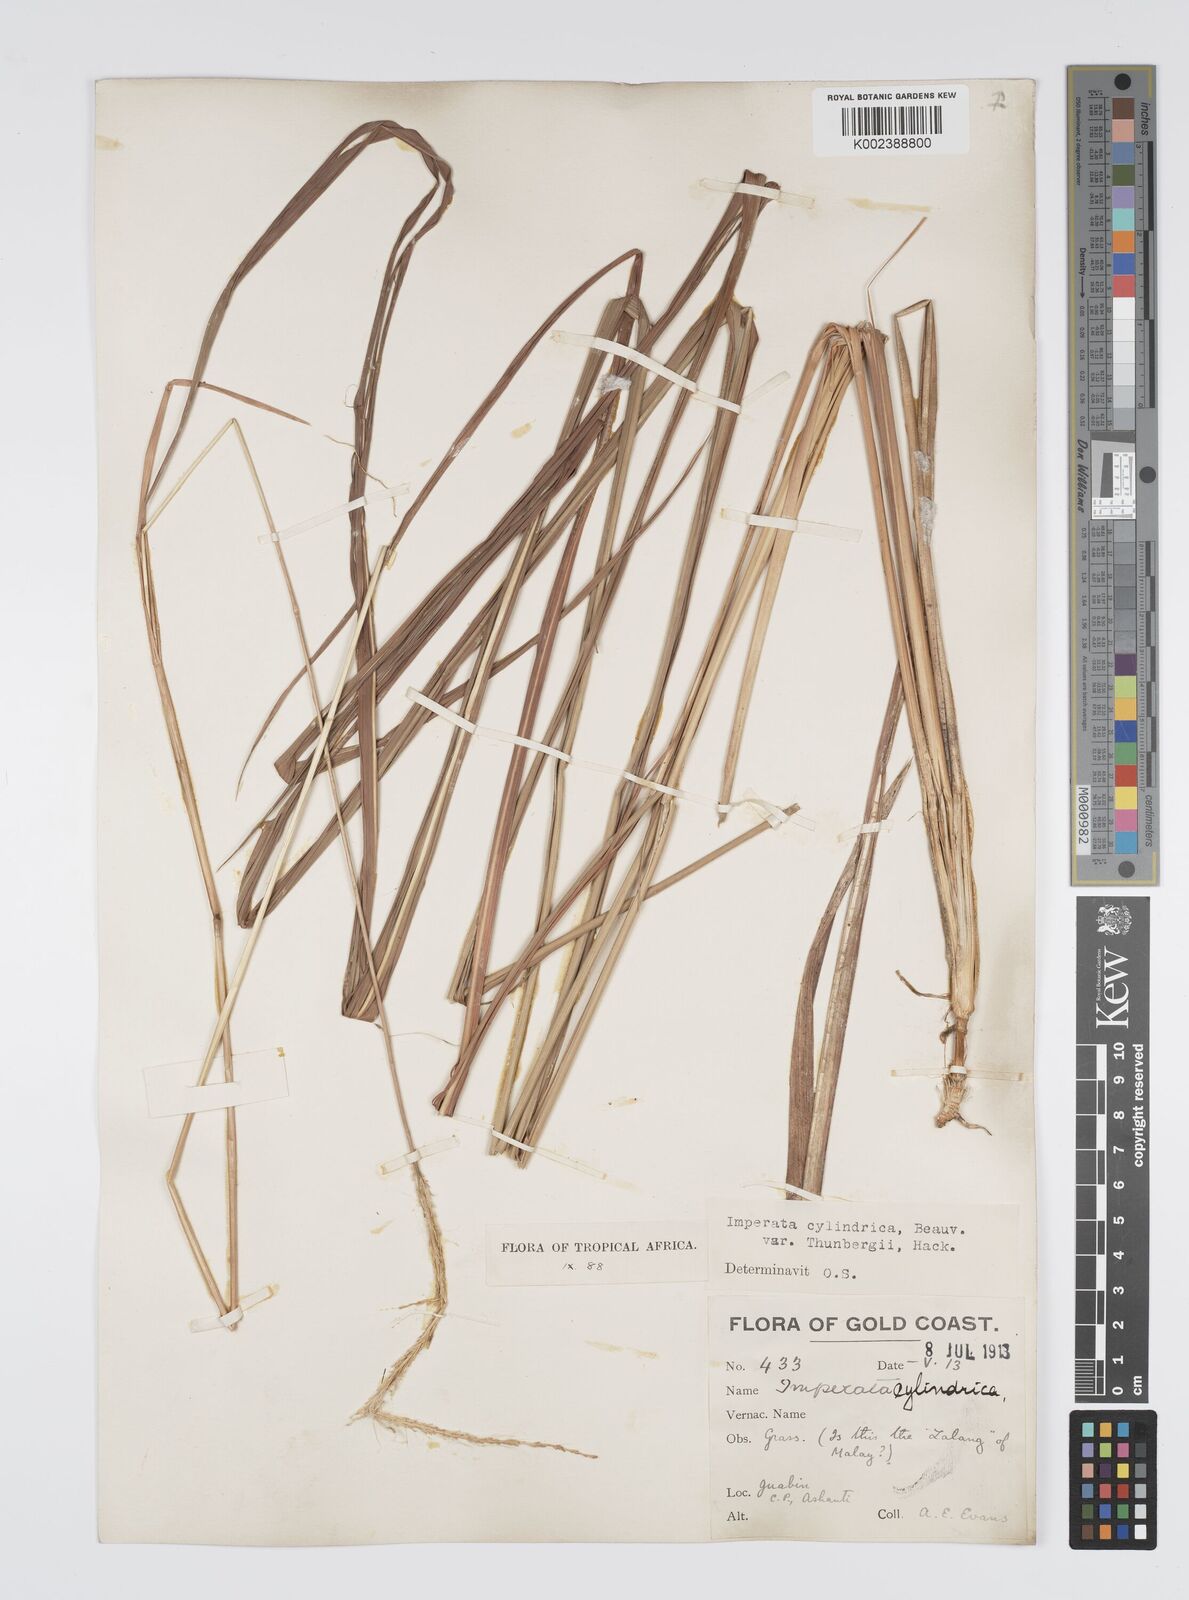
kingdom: Plantae
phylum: Tracheophyta
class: Liliopsida
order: Poales
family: Poaceae
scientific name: Poaceae
